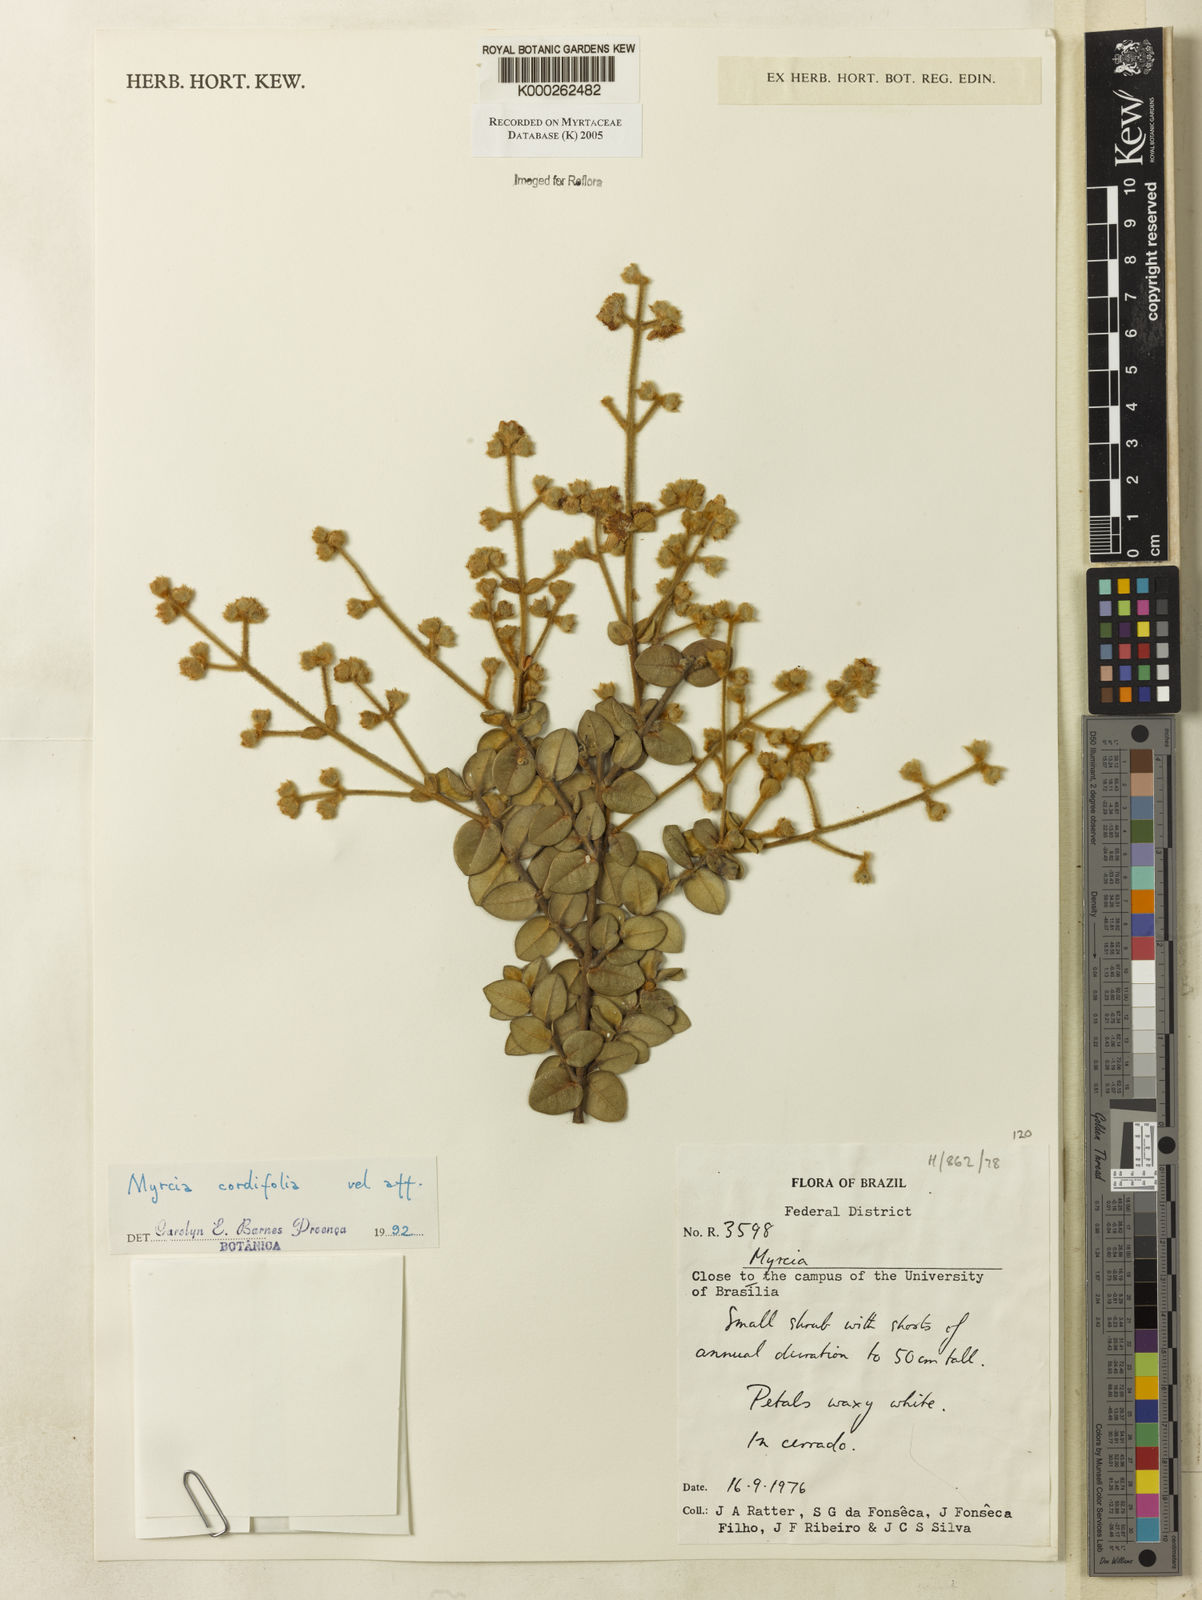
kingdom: Plantae
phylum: Tracheophyta
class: Magnoliopsida
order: Myrtales
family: Myrtaceae
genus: Myrcia
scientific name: Myrcia lasiantha
